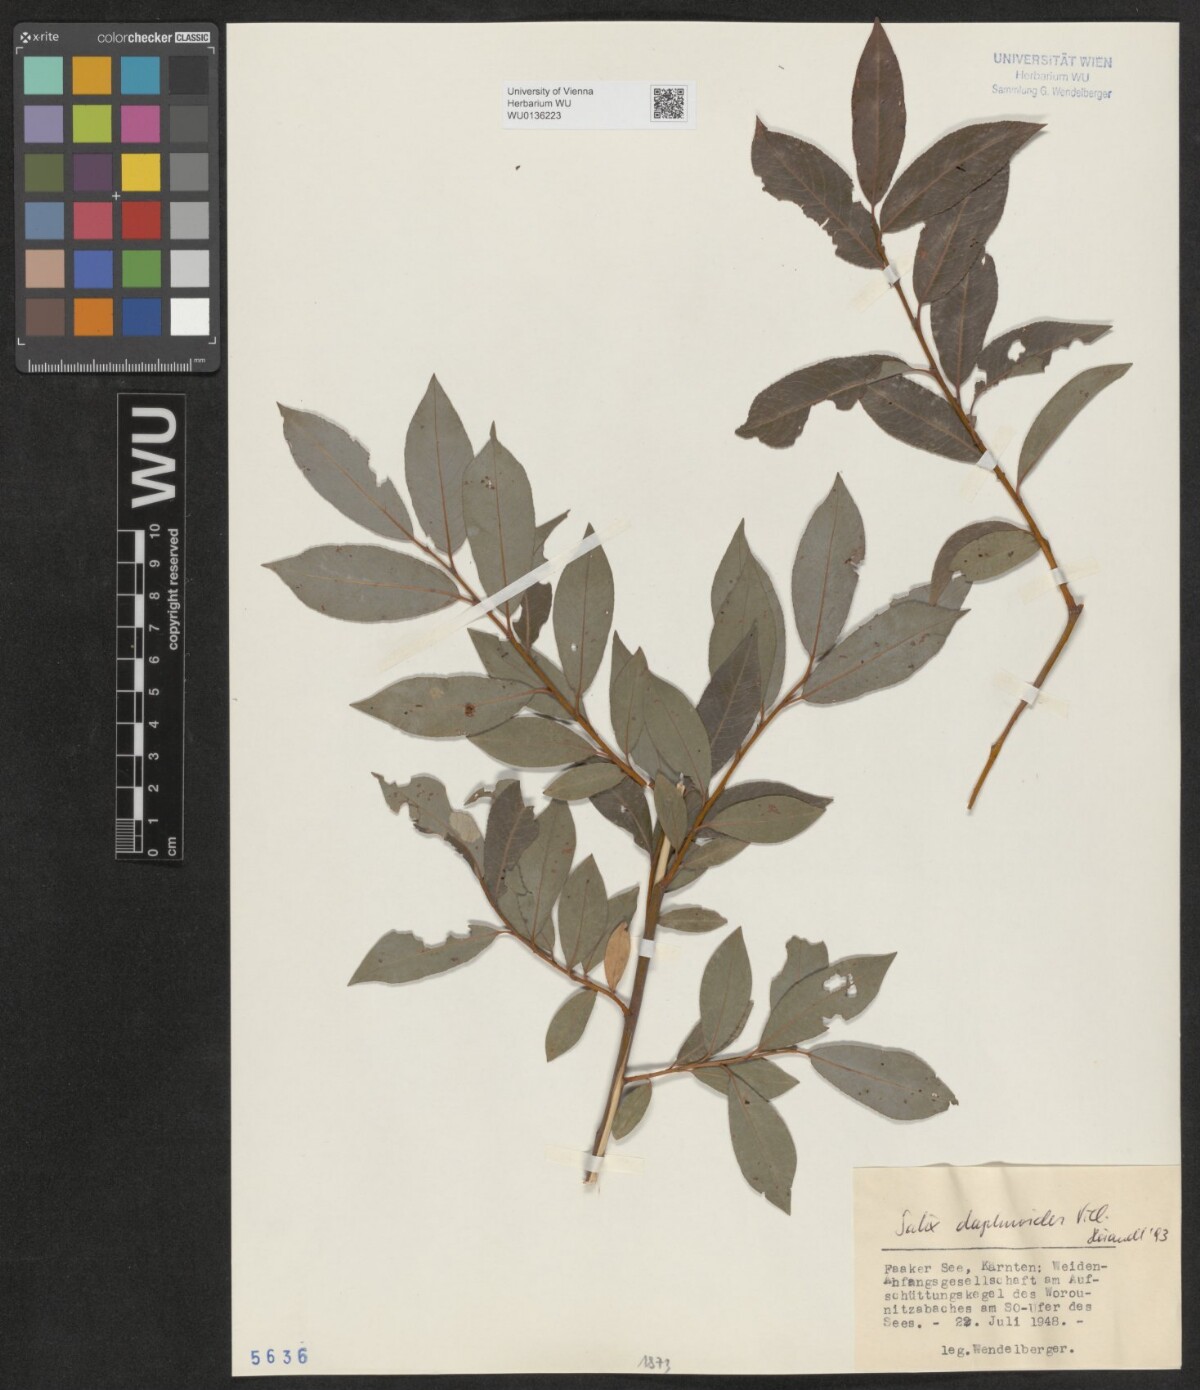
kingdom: Plantae
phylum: Tracheophyta
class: Magnoliopsida
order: Malpighiales
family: Salicaceae
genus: Salix
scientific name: Salix daphnoides
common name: European violet-willow
